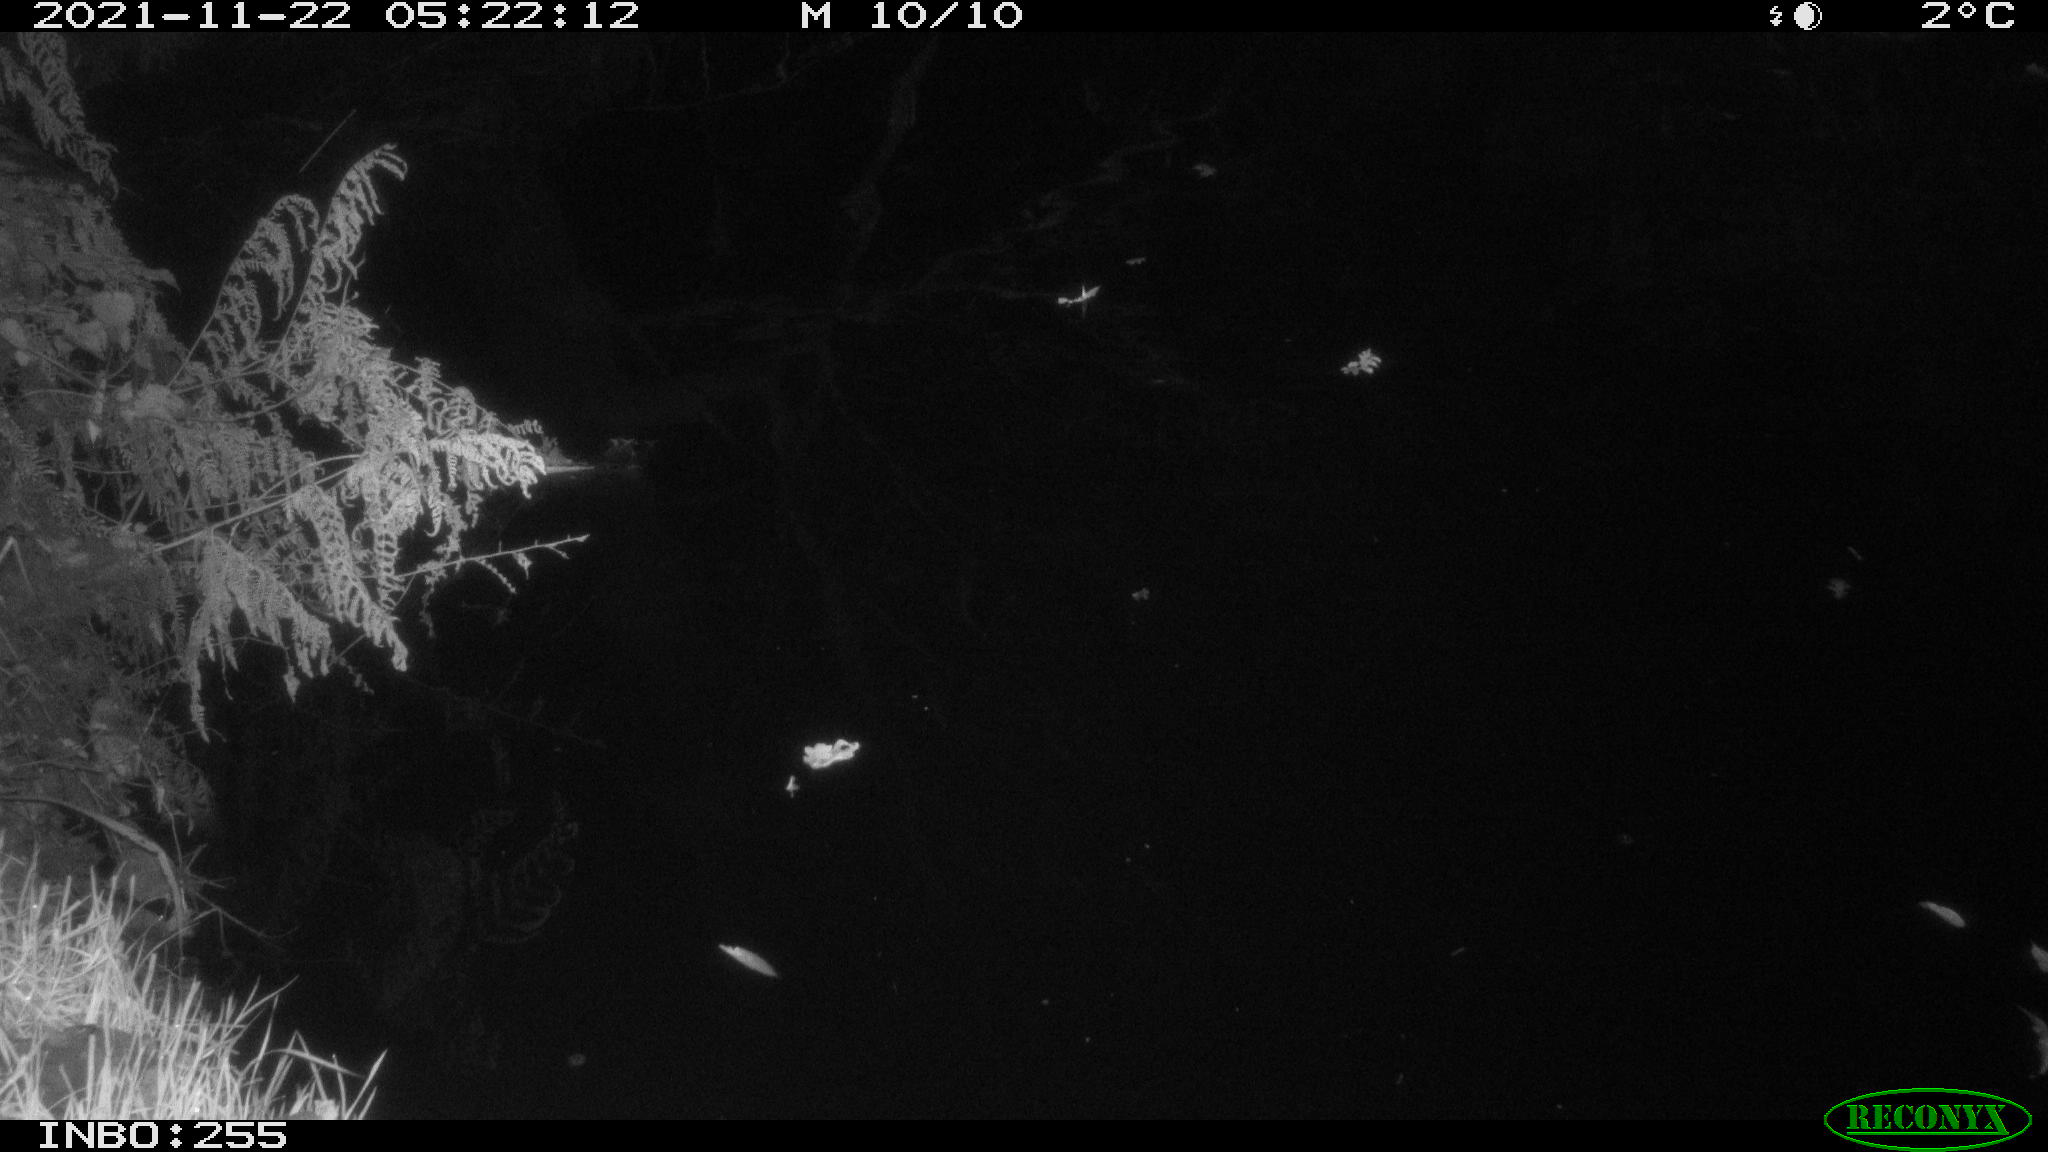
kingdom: Animalia
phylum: Chordata
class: Aves
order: Anseriformes
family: Anatidae
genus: Anas
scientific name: Anas platyrhynchos
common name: Mallard
